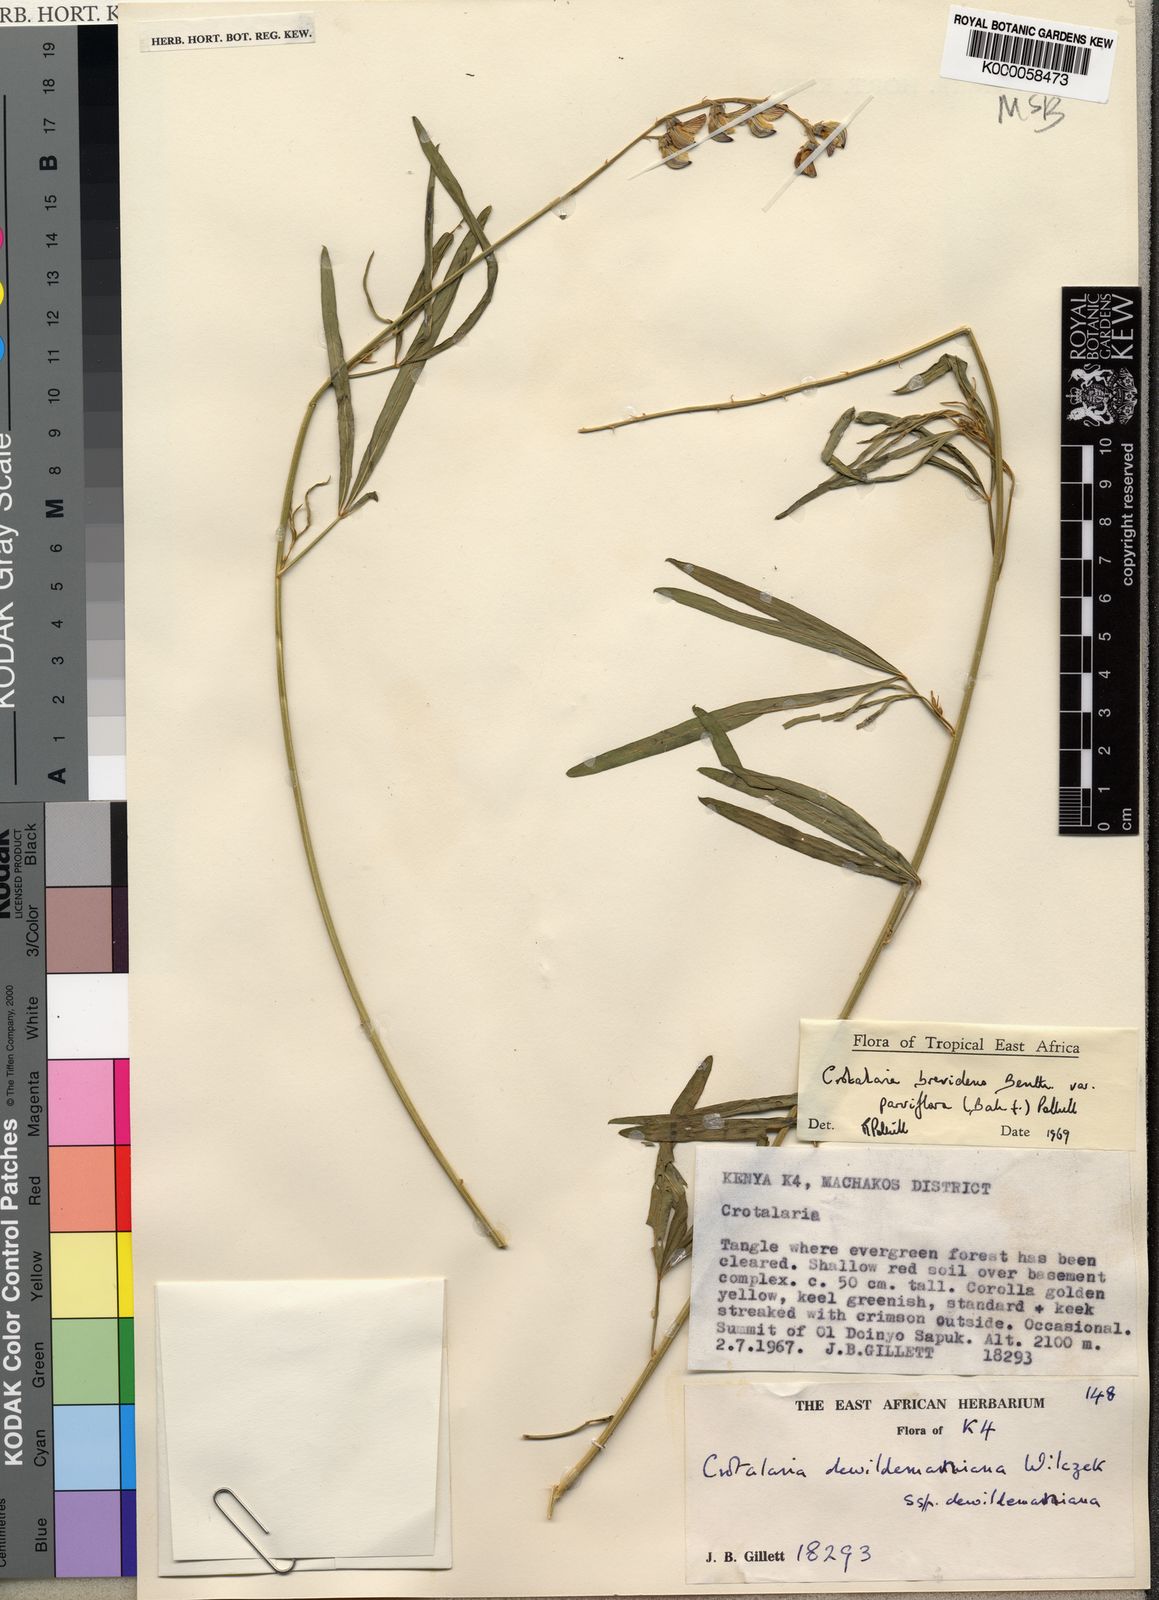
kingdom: Plantae
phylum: Tracheophyta
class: Magnoliopsida
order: Fabales
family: Fabaceae
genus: Crotalaria
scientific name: Crotalaria brevidens
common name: Ethiopian rattlebox
